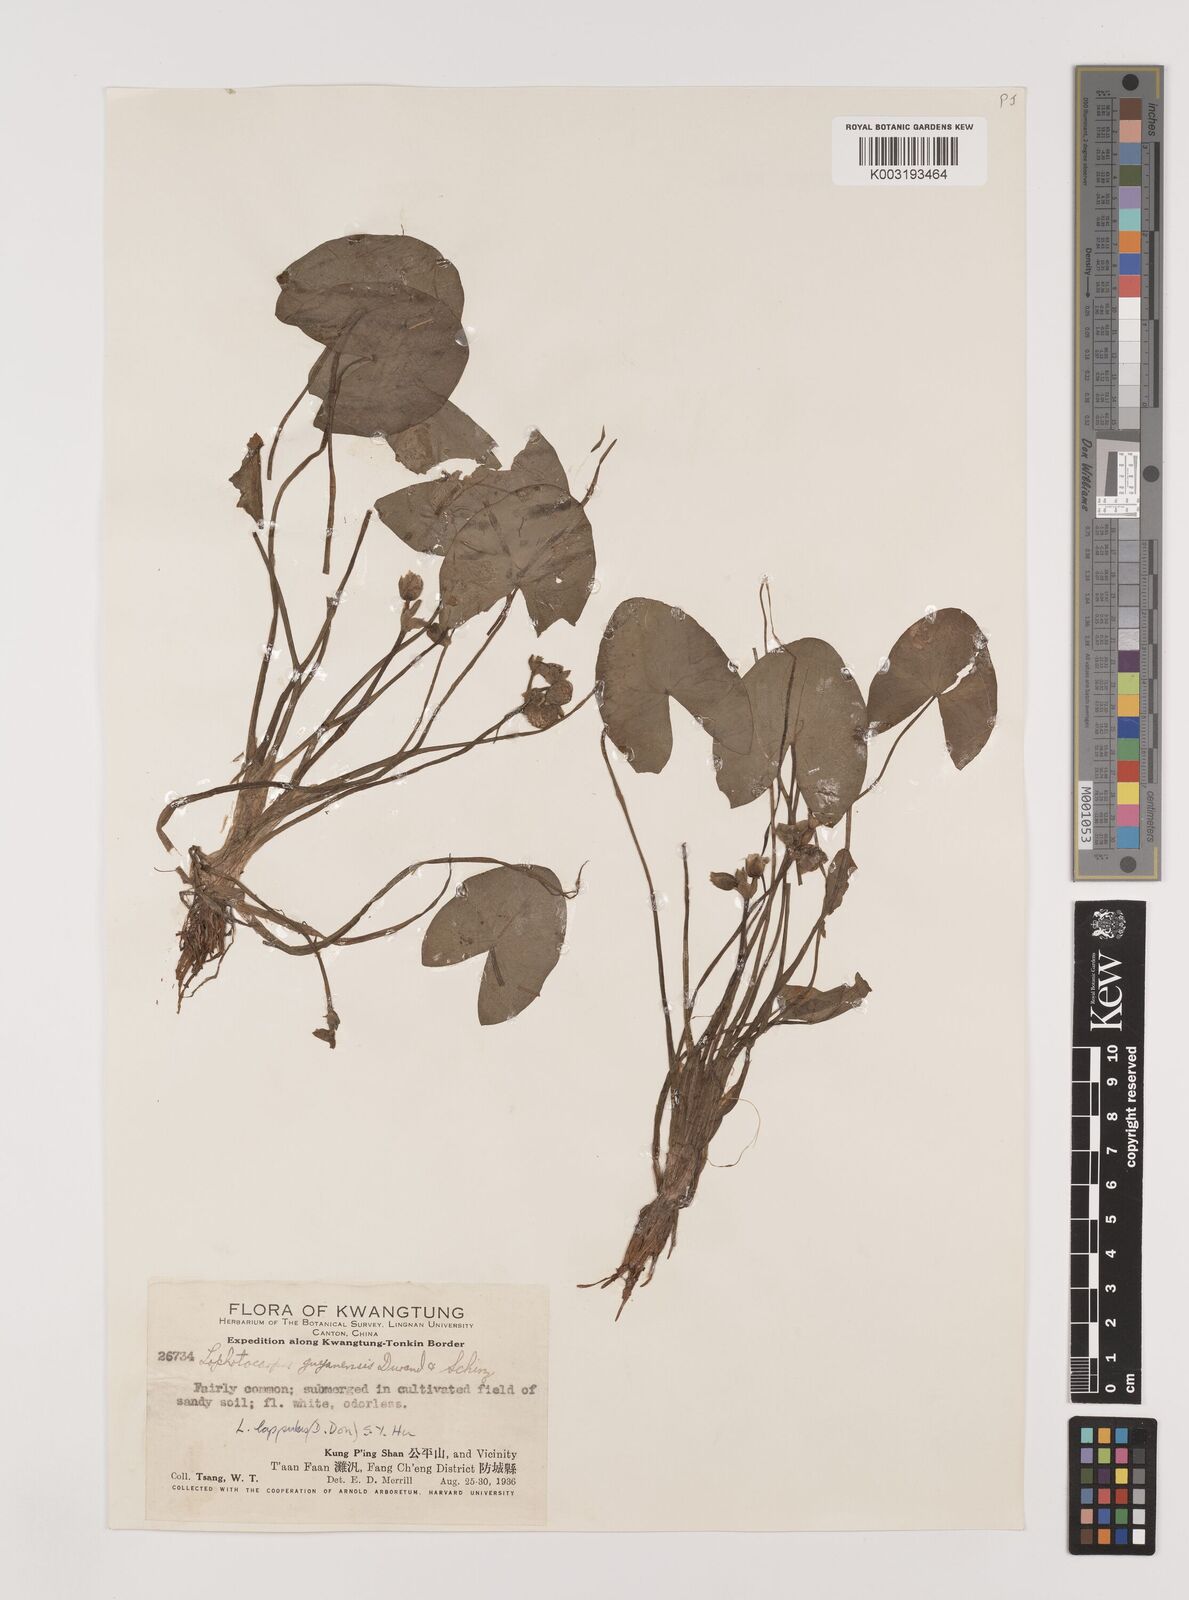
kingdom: Plantae
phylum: Tracheophyta
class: Liliopsida
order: Alismatales
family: Alismataceae
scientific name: Alismataceae
